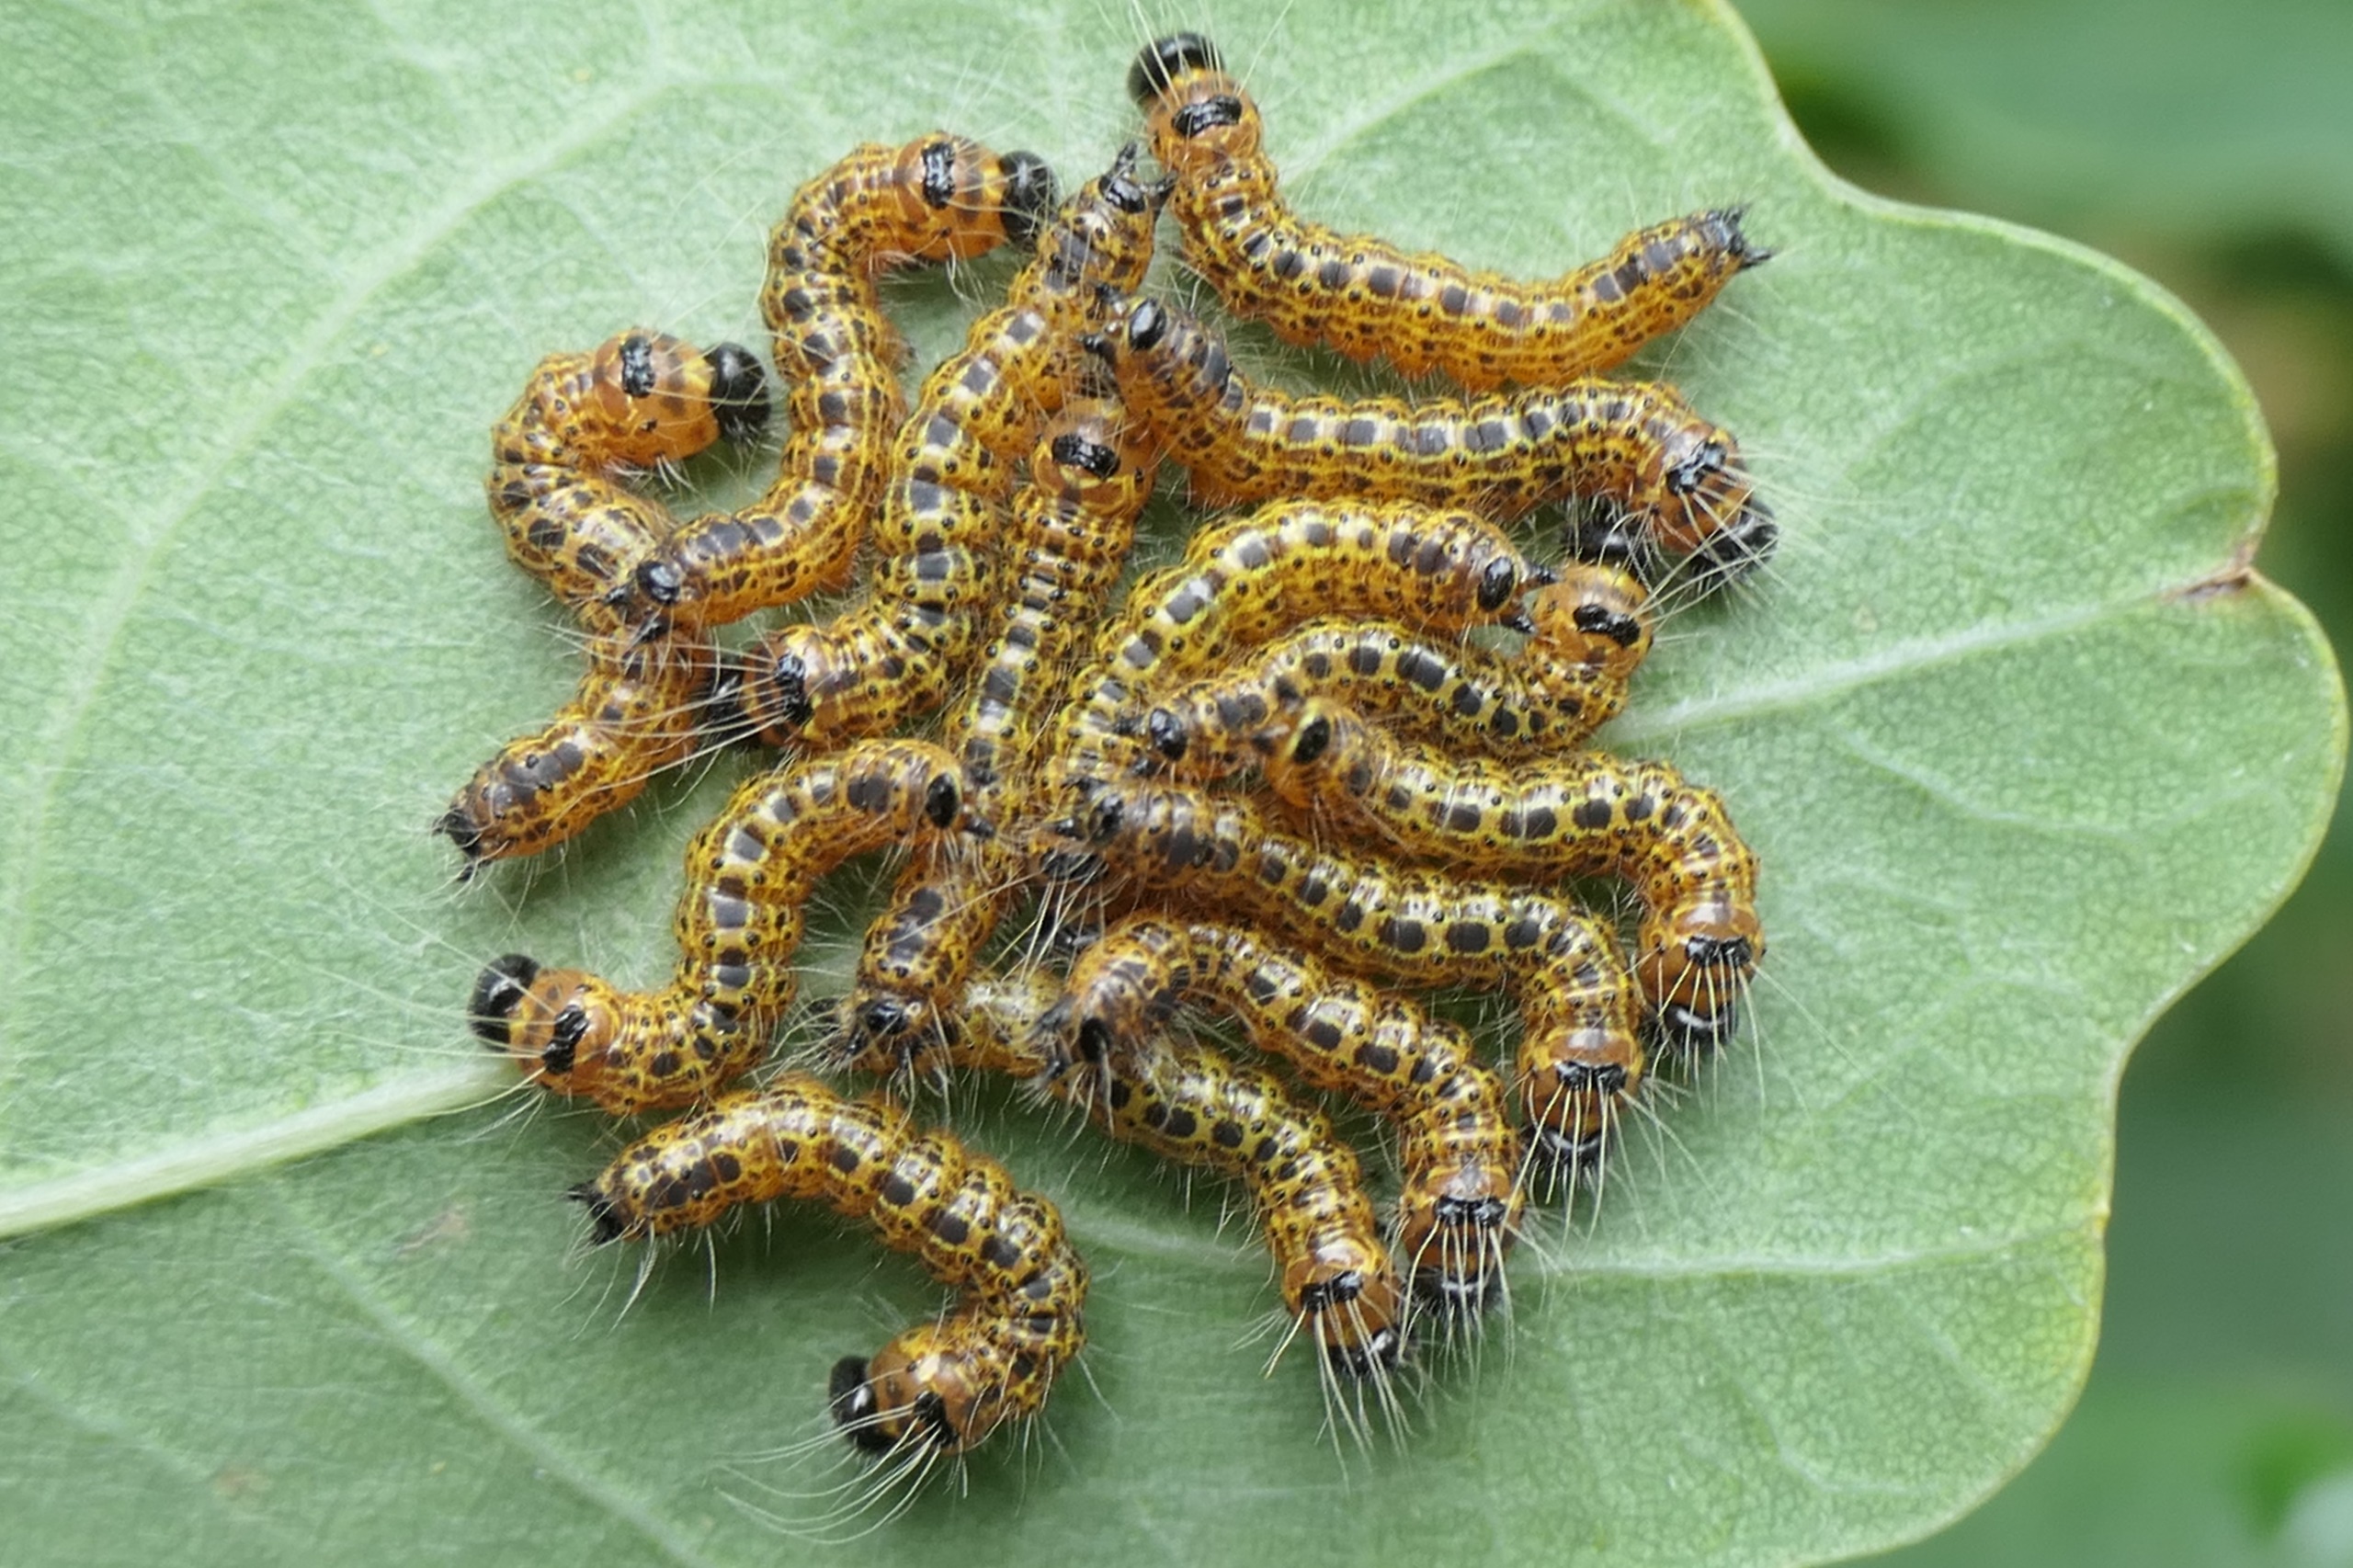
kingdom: Animalia
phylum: Arthropoda
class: Insecta
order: Lepidoptera
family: Notodontidae
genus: Phalera
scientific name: Phalera bucephala
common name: Måneplet
